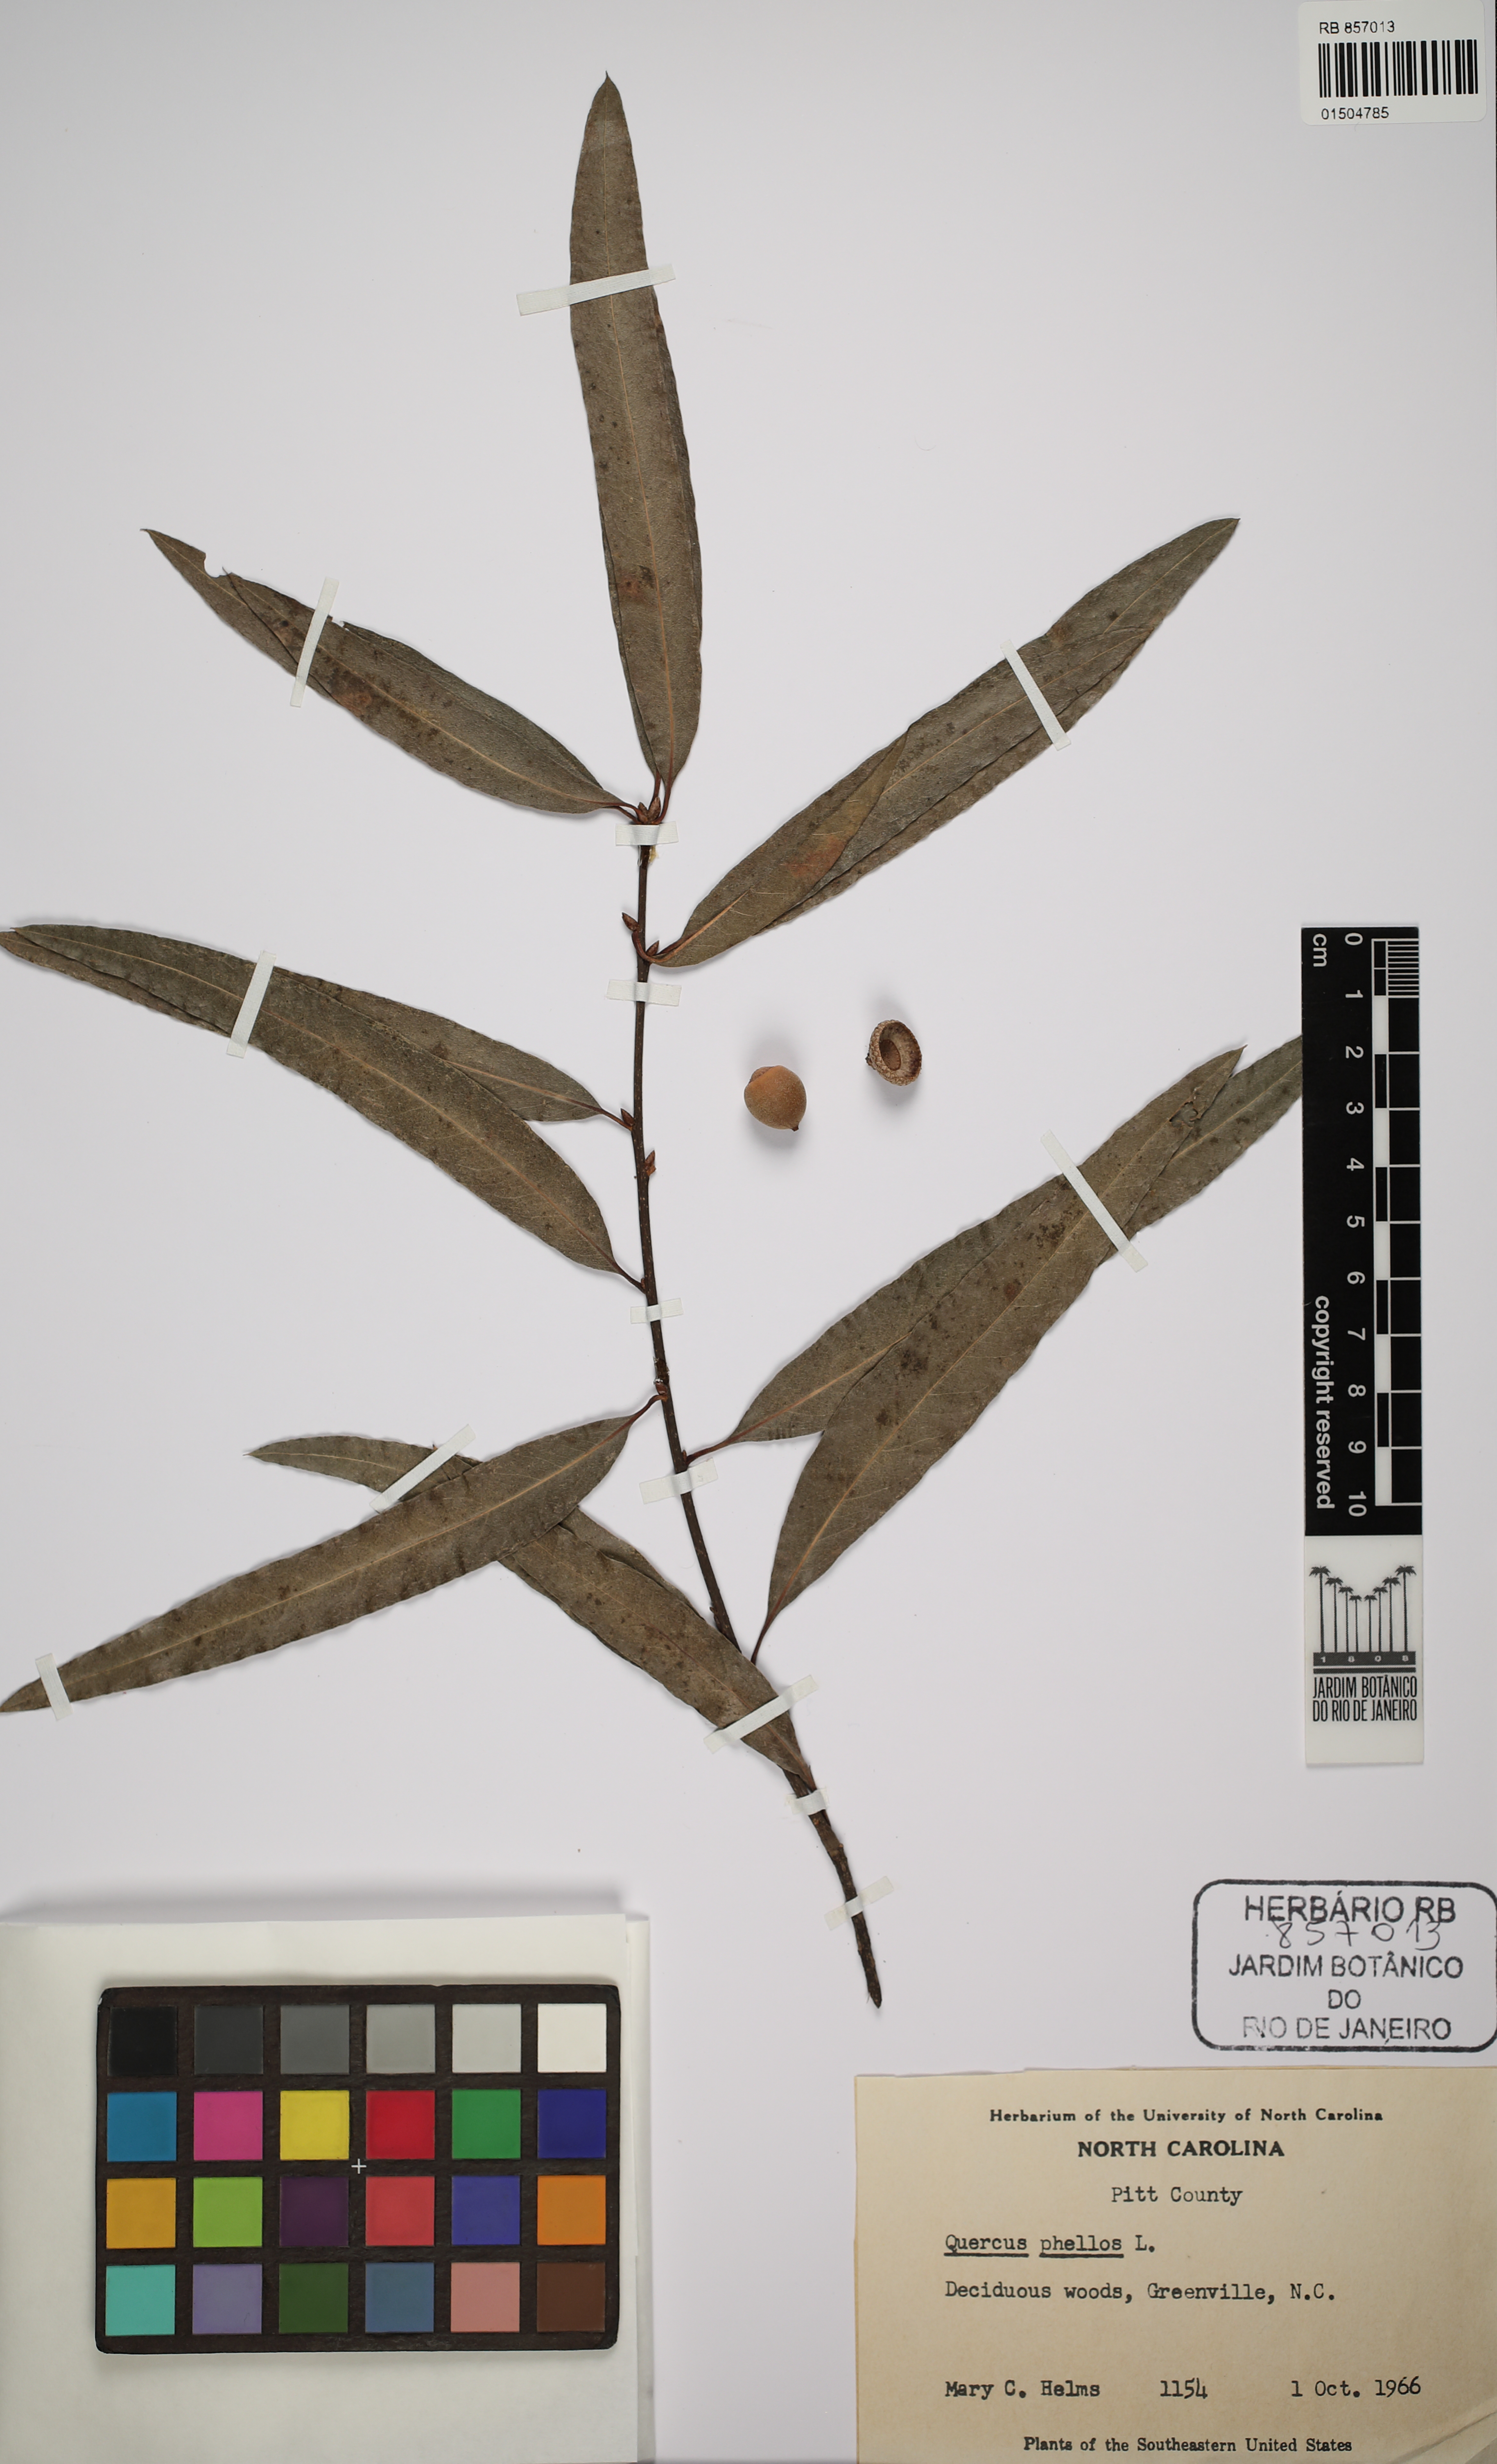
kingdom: Plantae
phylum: Tracheophyta
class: Magnoliopsida
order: Fagales
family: Fagaceae
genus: Quercus
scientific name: Quercus phellos
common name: Willow oak
